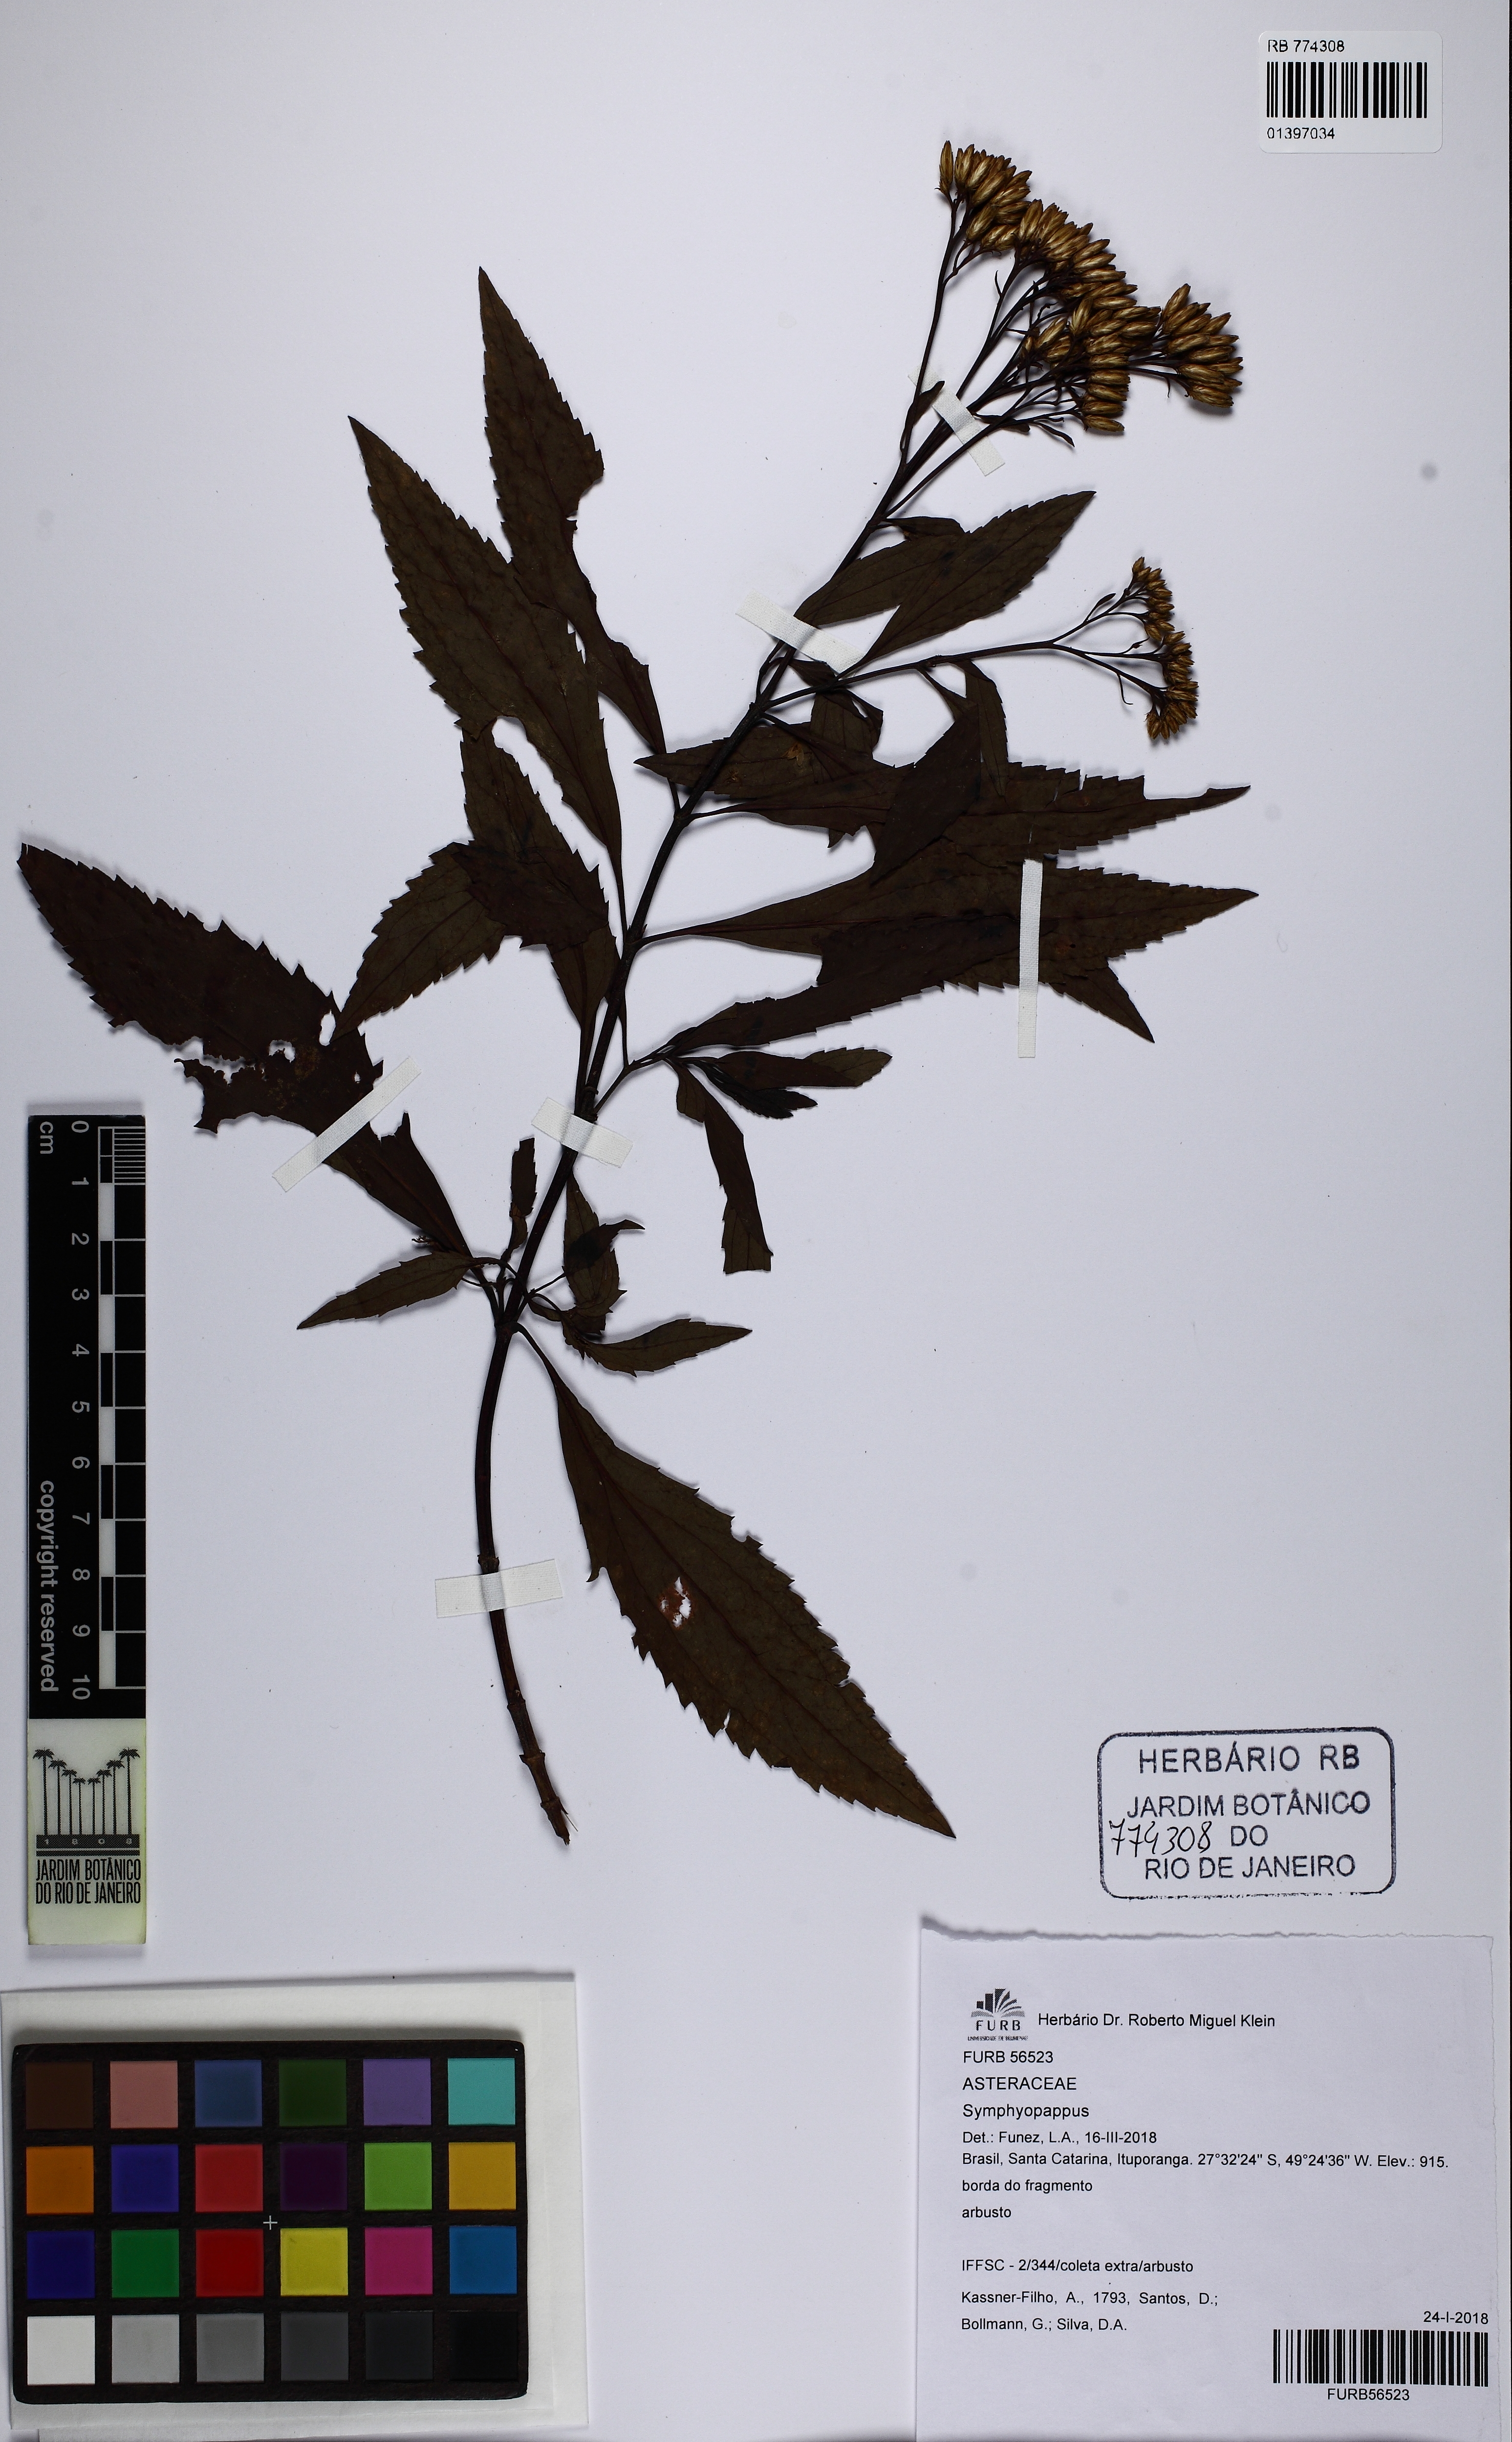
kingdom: Plantae
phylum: Tracheophyta
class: Magnoliopsida
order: Asterales
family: Asteraceae
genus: Symphyopappus
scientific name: Symphyopappus
